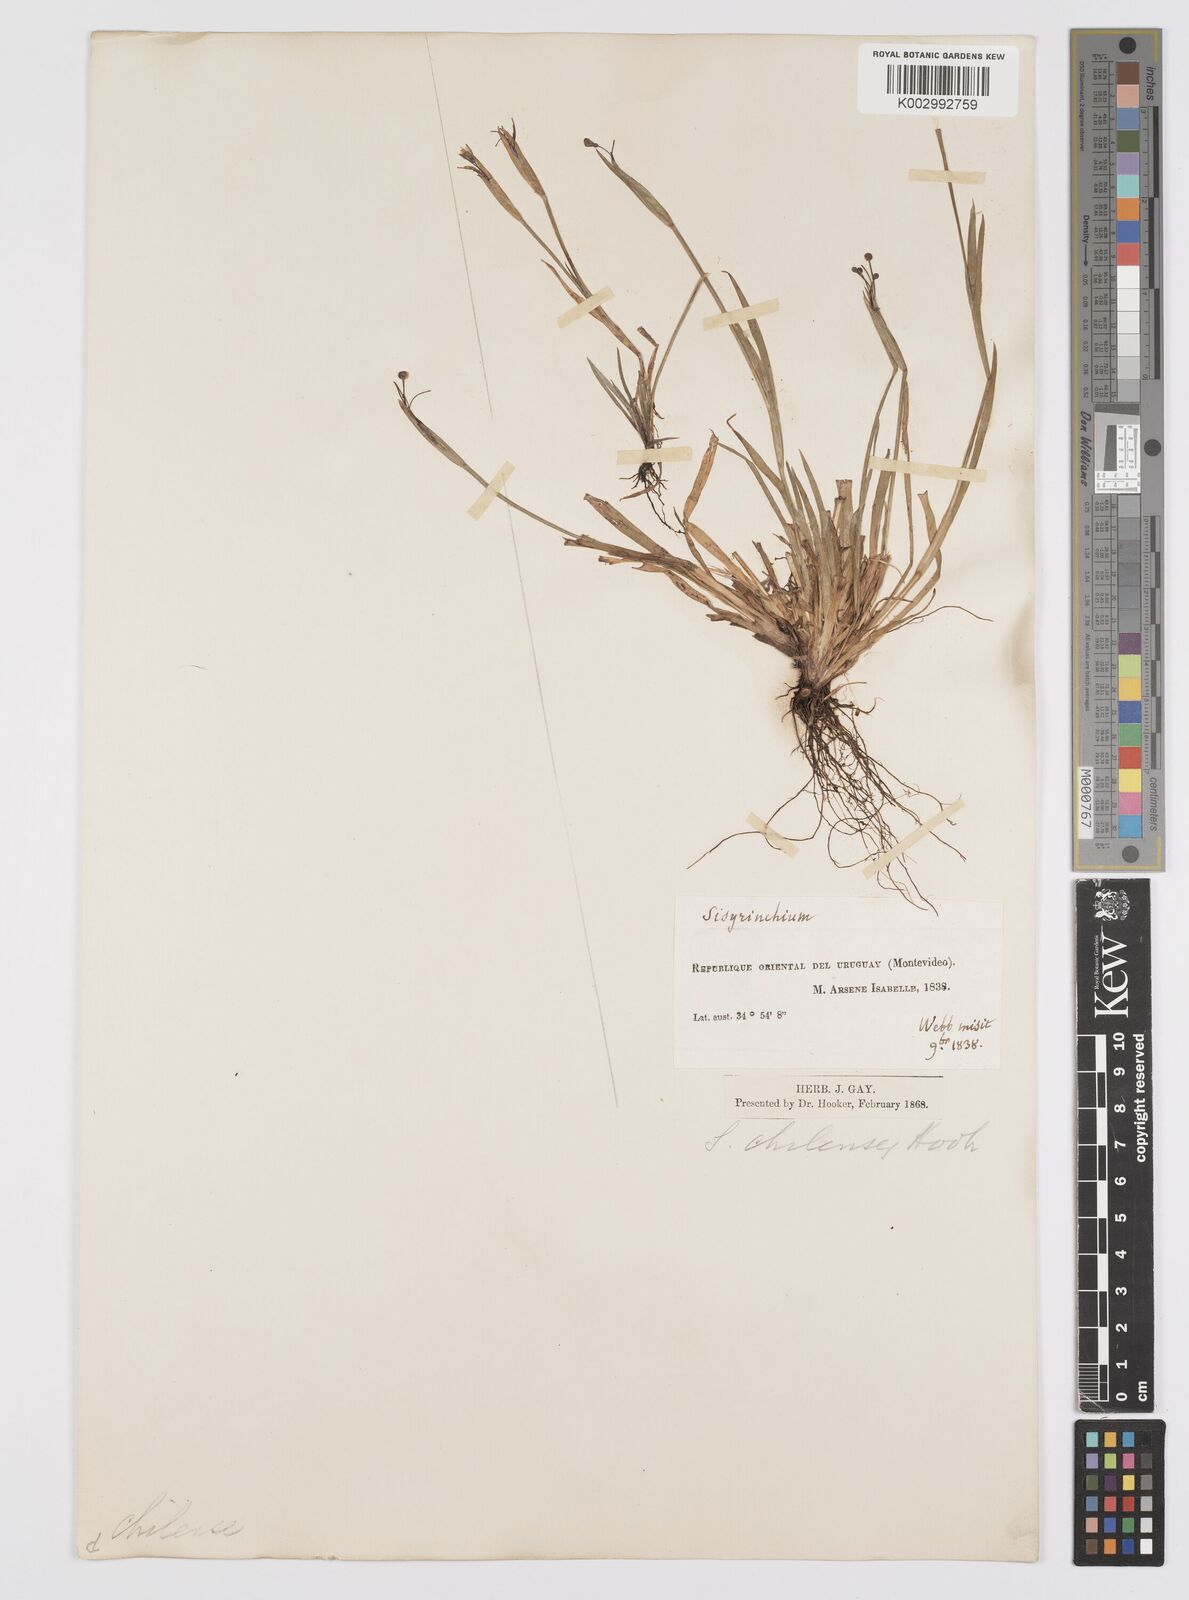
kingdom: Plantae
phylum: Tracheophyta
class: Liliopsida
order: Asparagales
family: Iridaceae
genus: Sisyrinchium
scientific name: Sisyrinchium chilense
